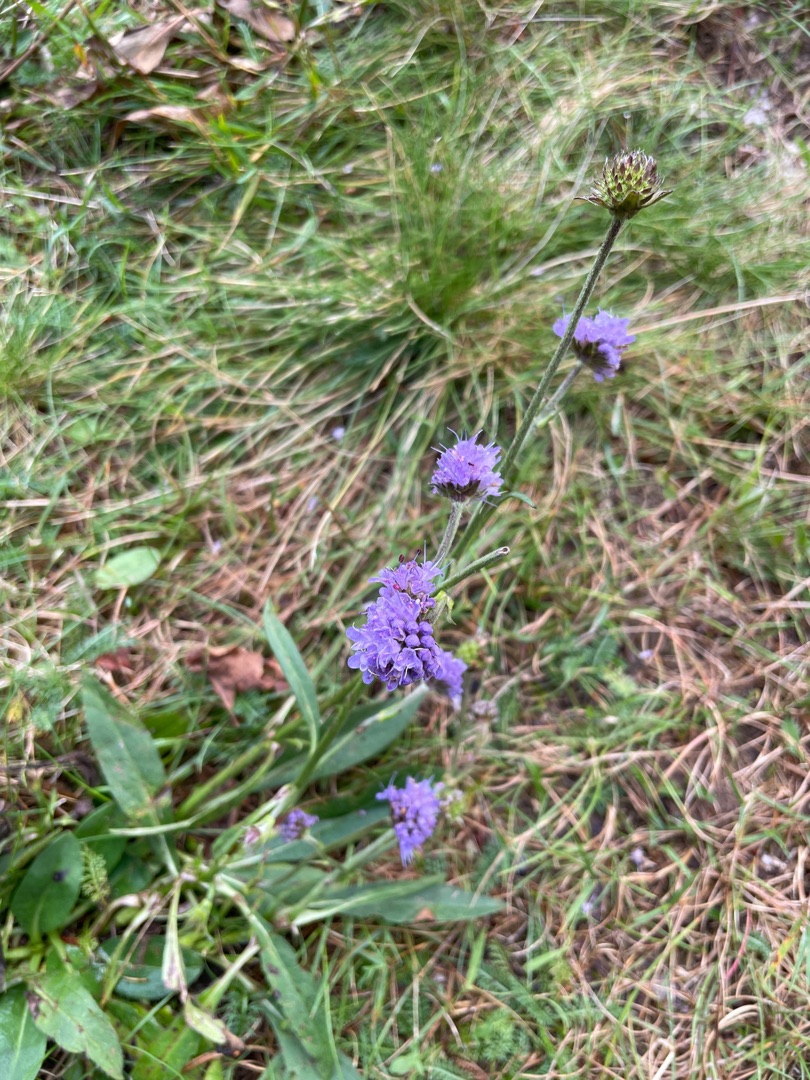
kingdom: Plantae
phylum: Tracheophyta
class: Magnoliopsida
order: Dipsacales
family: Caprifoliaceae
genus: Succisa
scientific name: Succisa pratensis
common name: Djævelsbid
